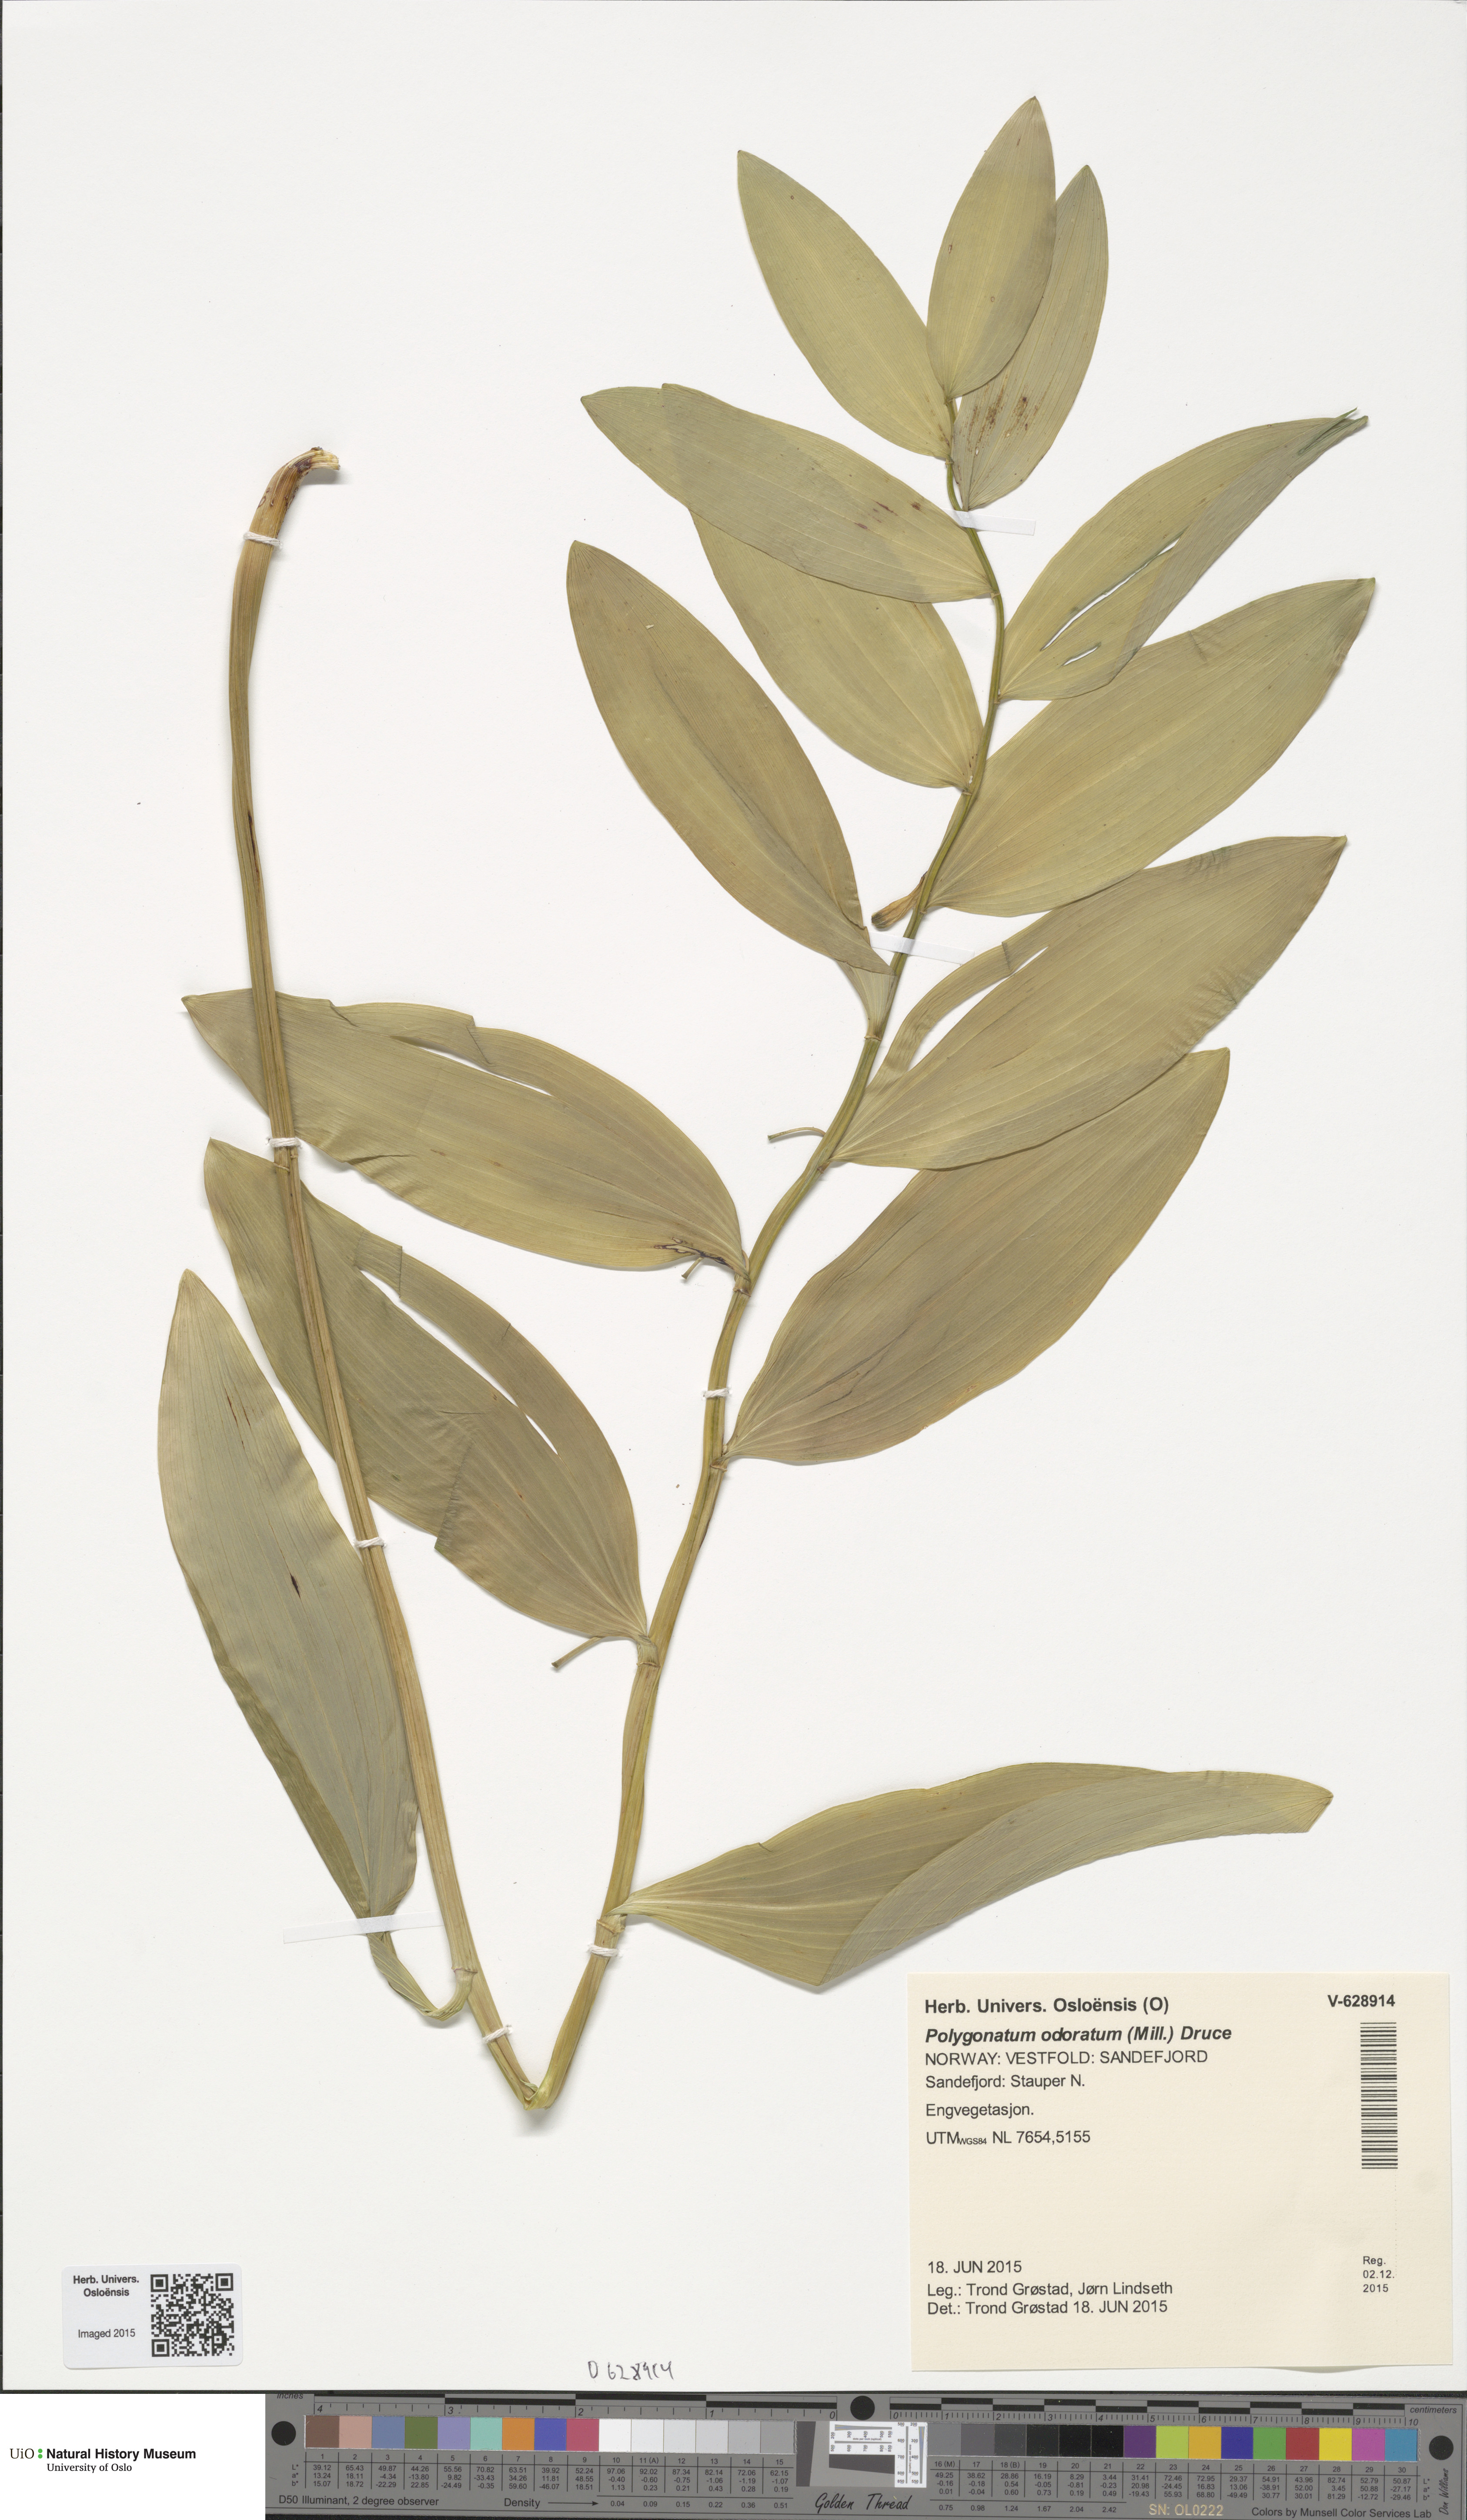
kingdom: Plantae
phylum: Tracheophyta
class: Liliopsida
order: Asparagales
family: Asparagaceae
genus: Polygonatum
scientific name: Polygonatum odoratum
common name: Angular solomon's-seal
